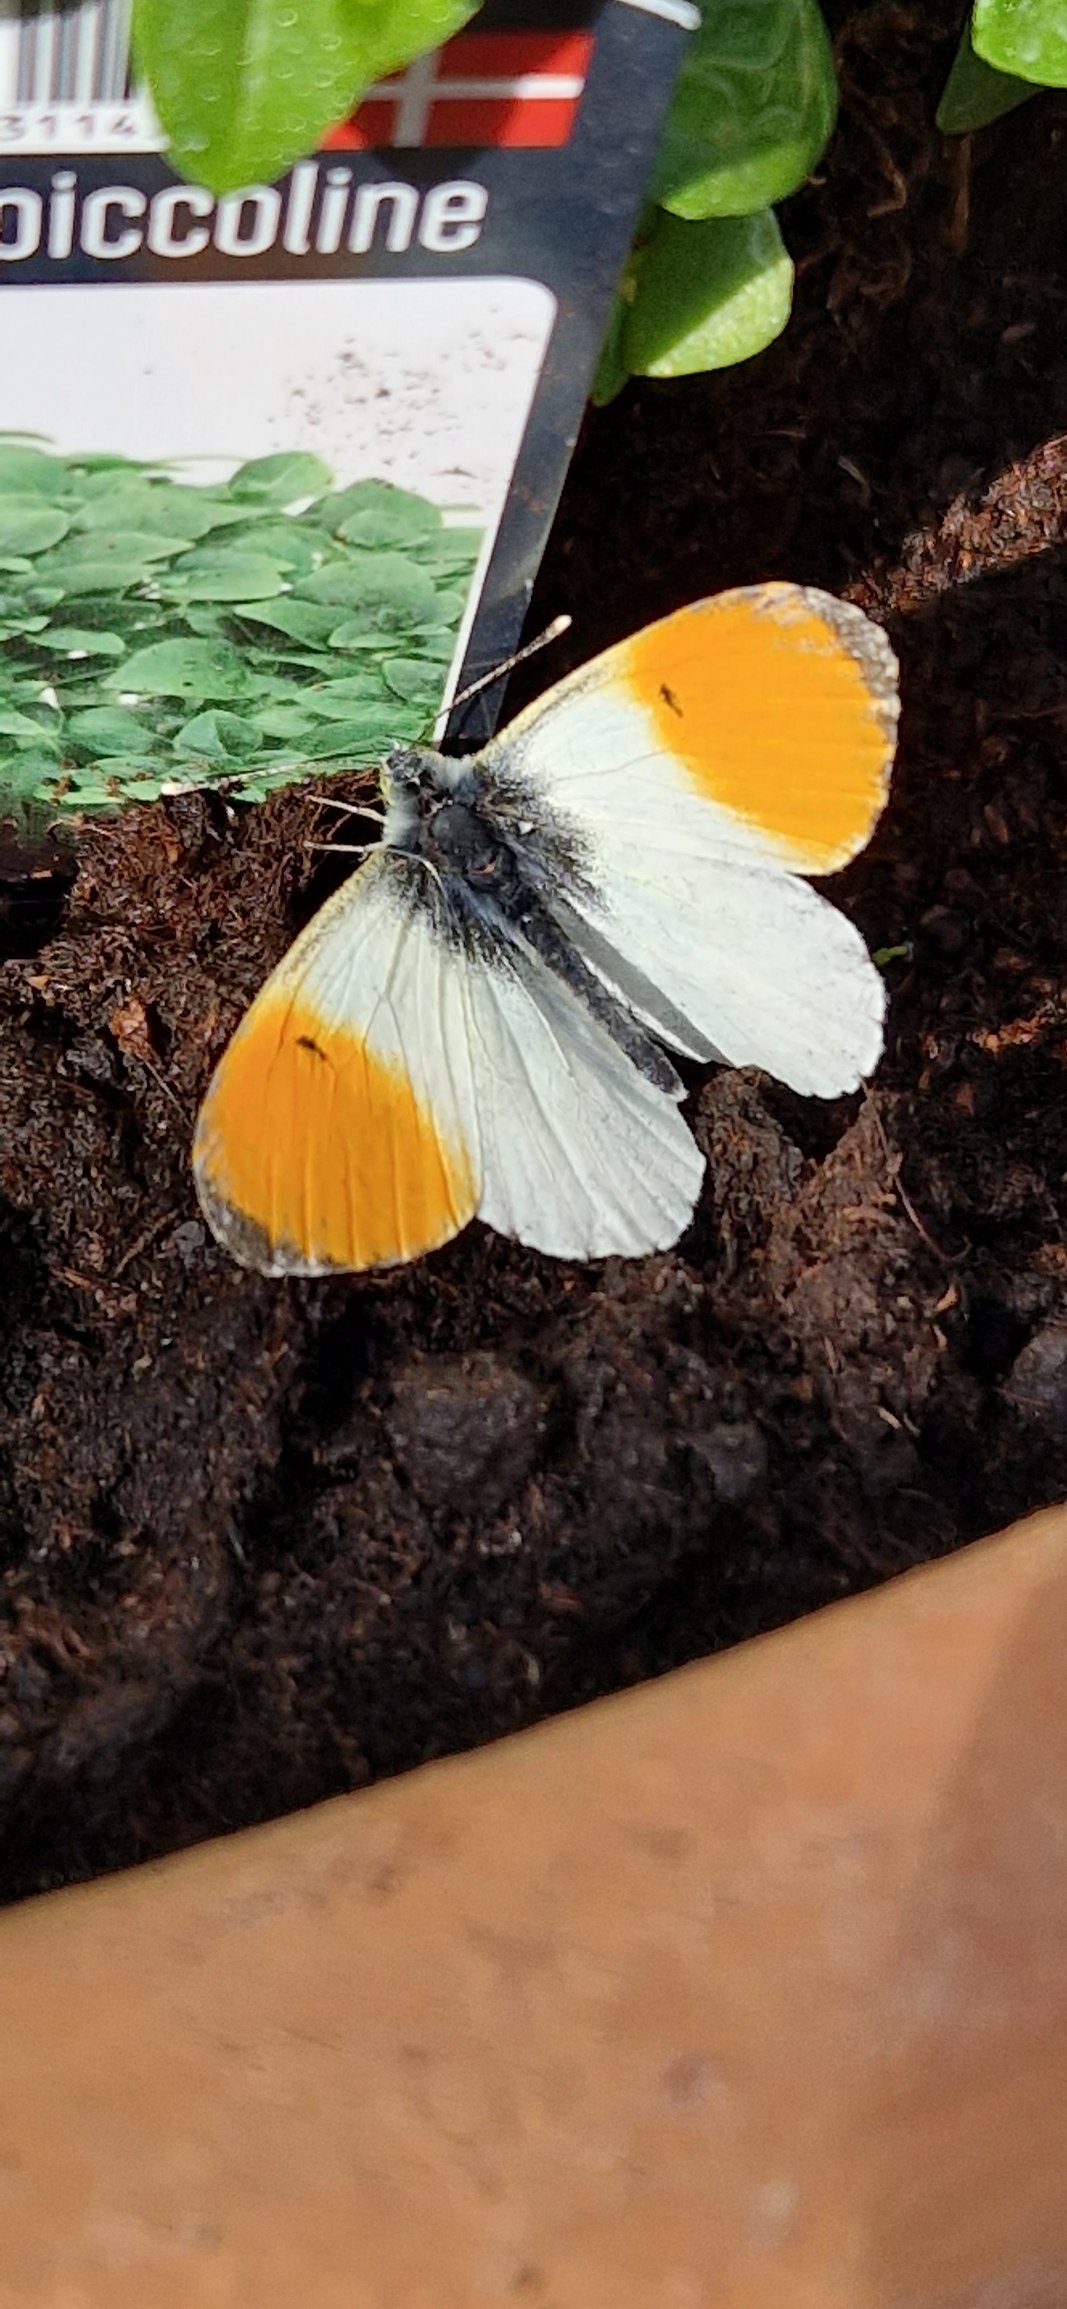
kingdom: Animalia
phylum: Arthropoda
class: Insecta
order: Lepidoptera
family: Pieridae
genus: Anthocharis
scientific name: Anthocharis cardamines
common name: Aurora
